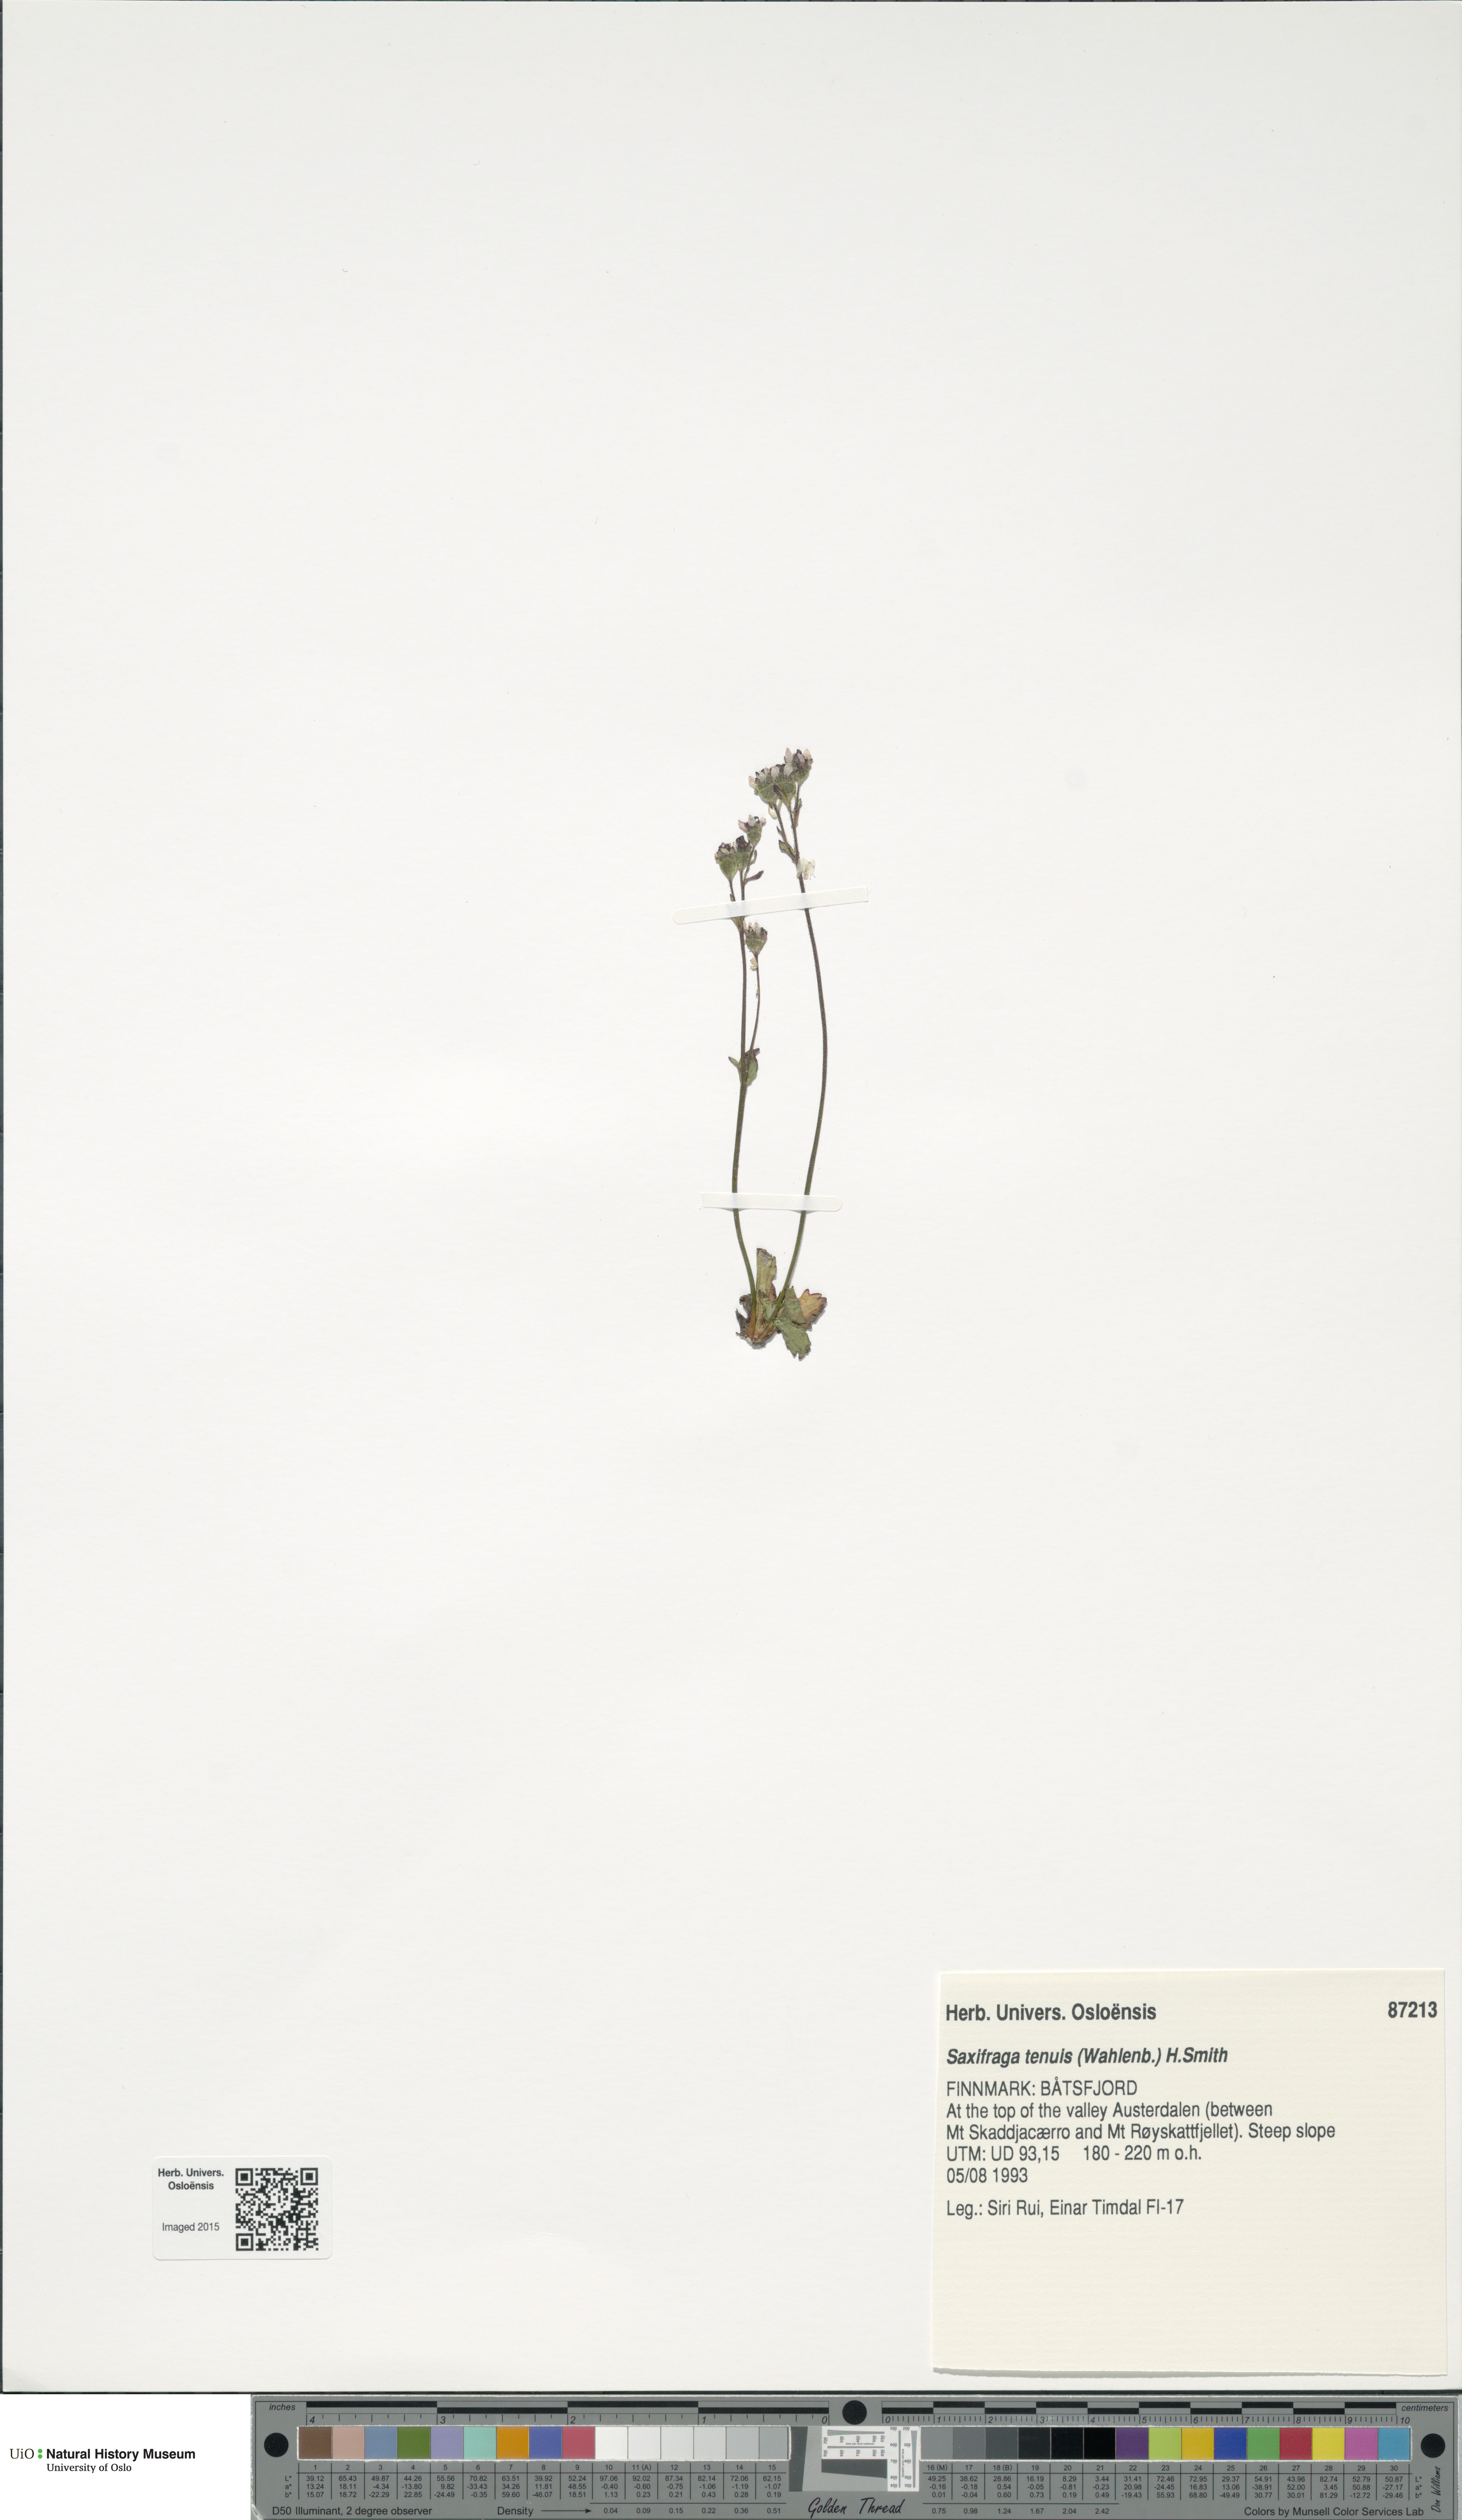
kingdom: Plantae
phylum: Tracheophyta
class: Magnoliopsida
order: Saxifragales
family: Saxifragaceae
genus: Micranthes
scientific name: Micranthes tenuis
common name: Ottertail pass saxifrage
